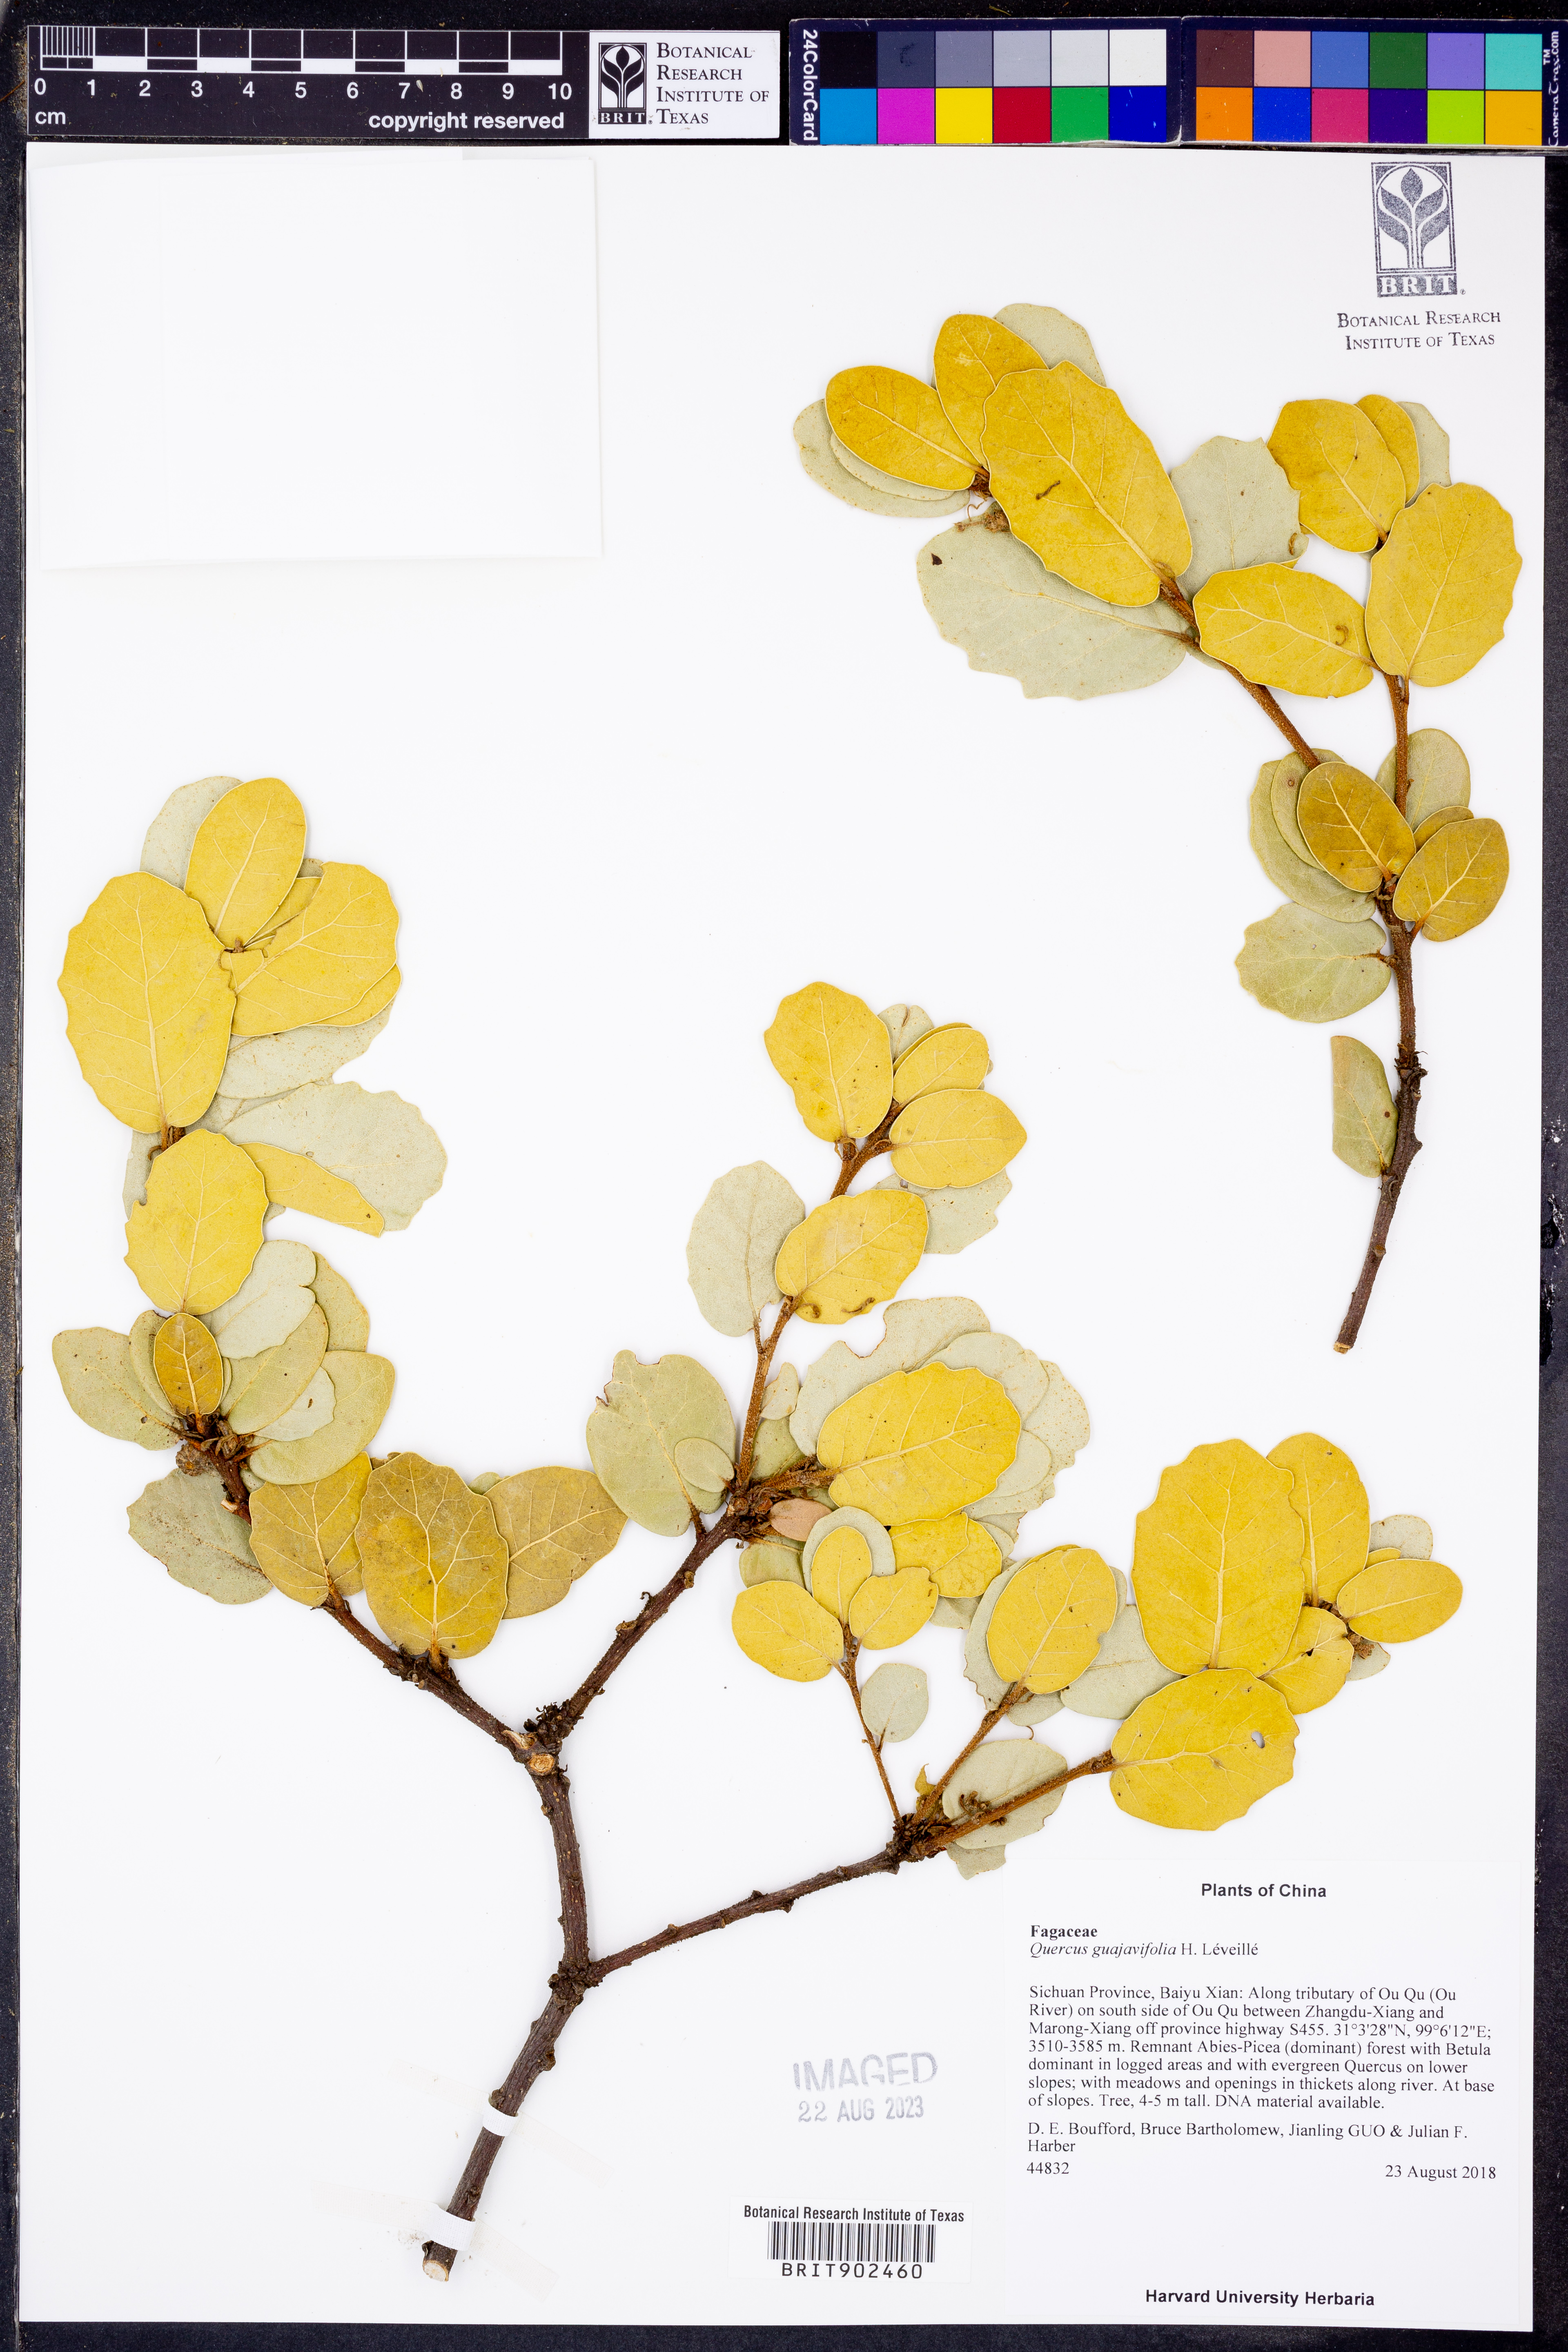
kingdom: Plantae
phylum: Tracheophyta
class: Magnoliopsida
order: Fagales
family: Fagaceae
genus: Quercus
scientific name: Quercus
